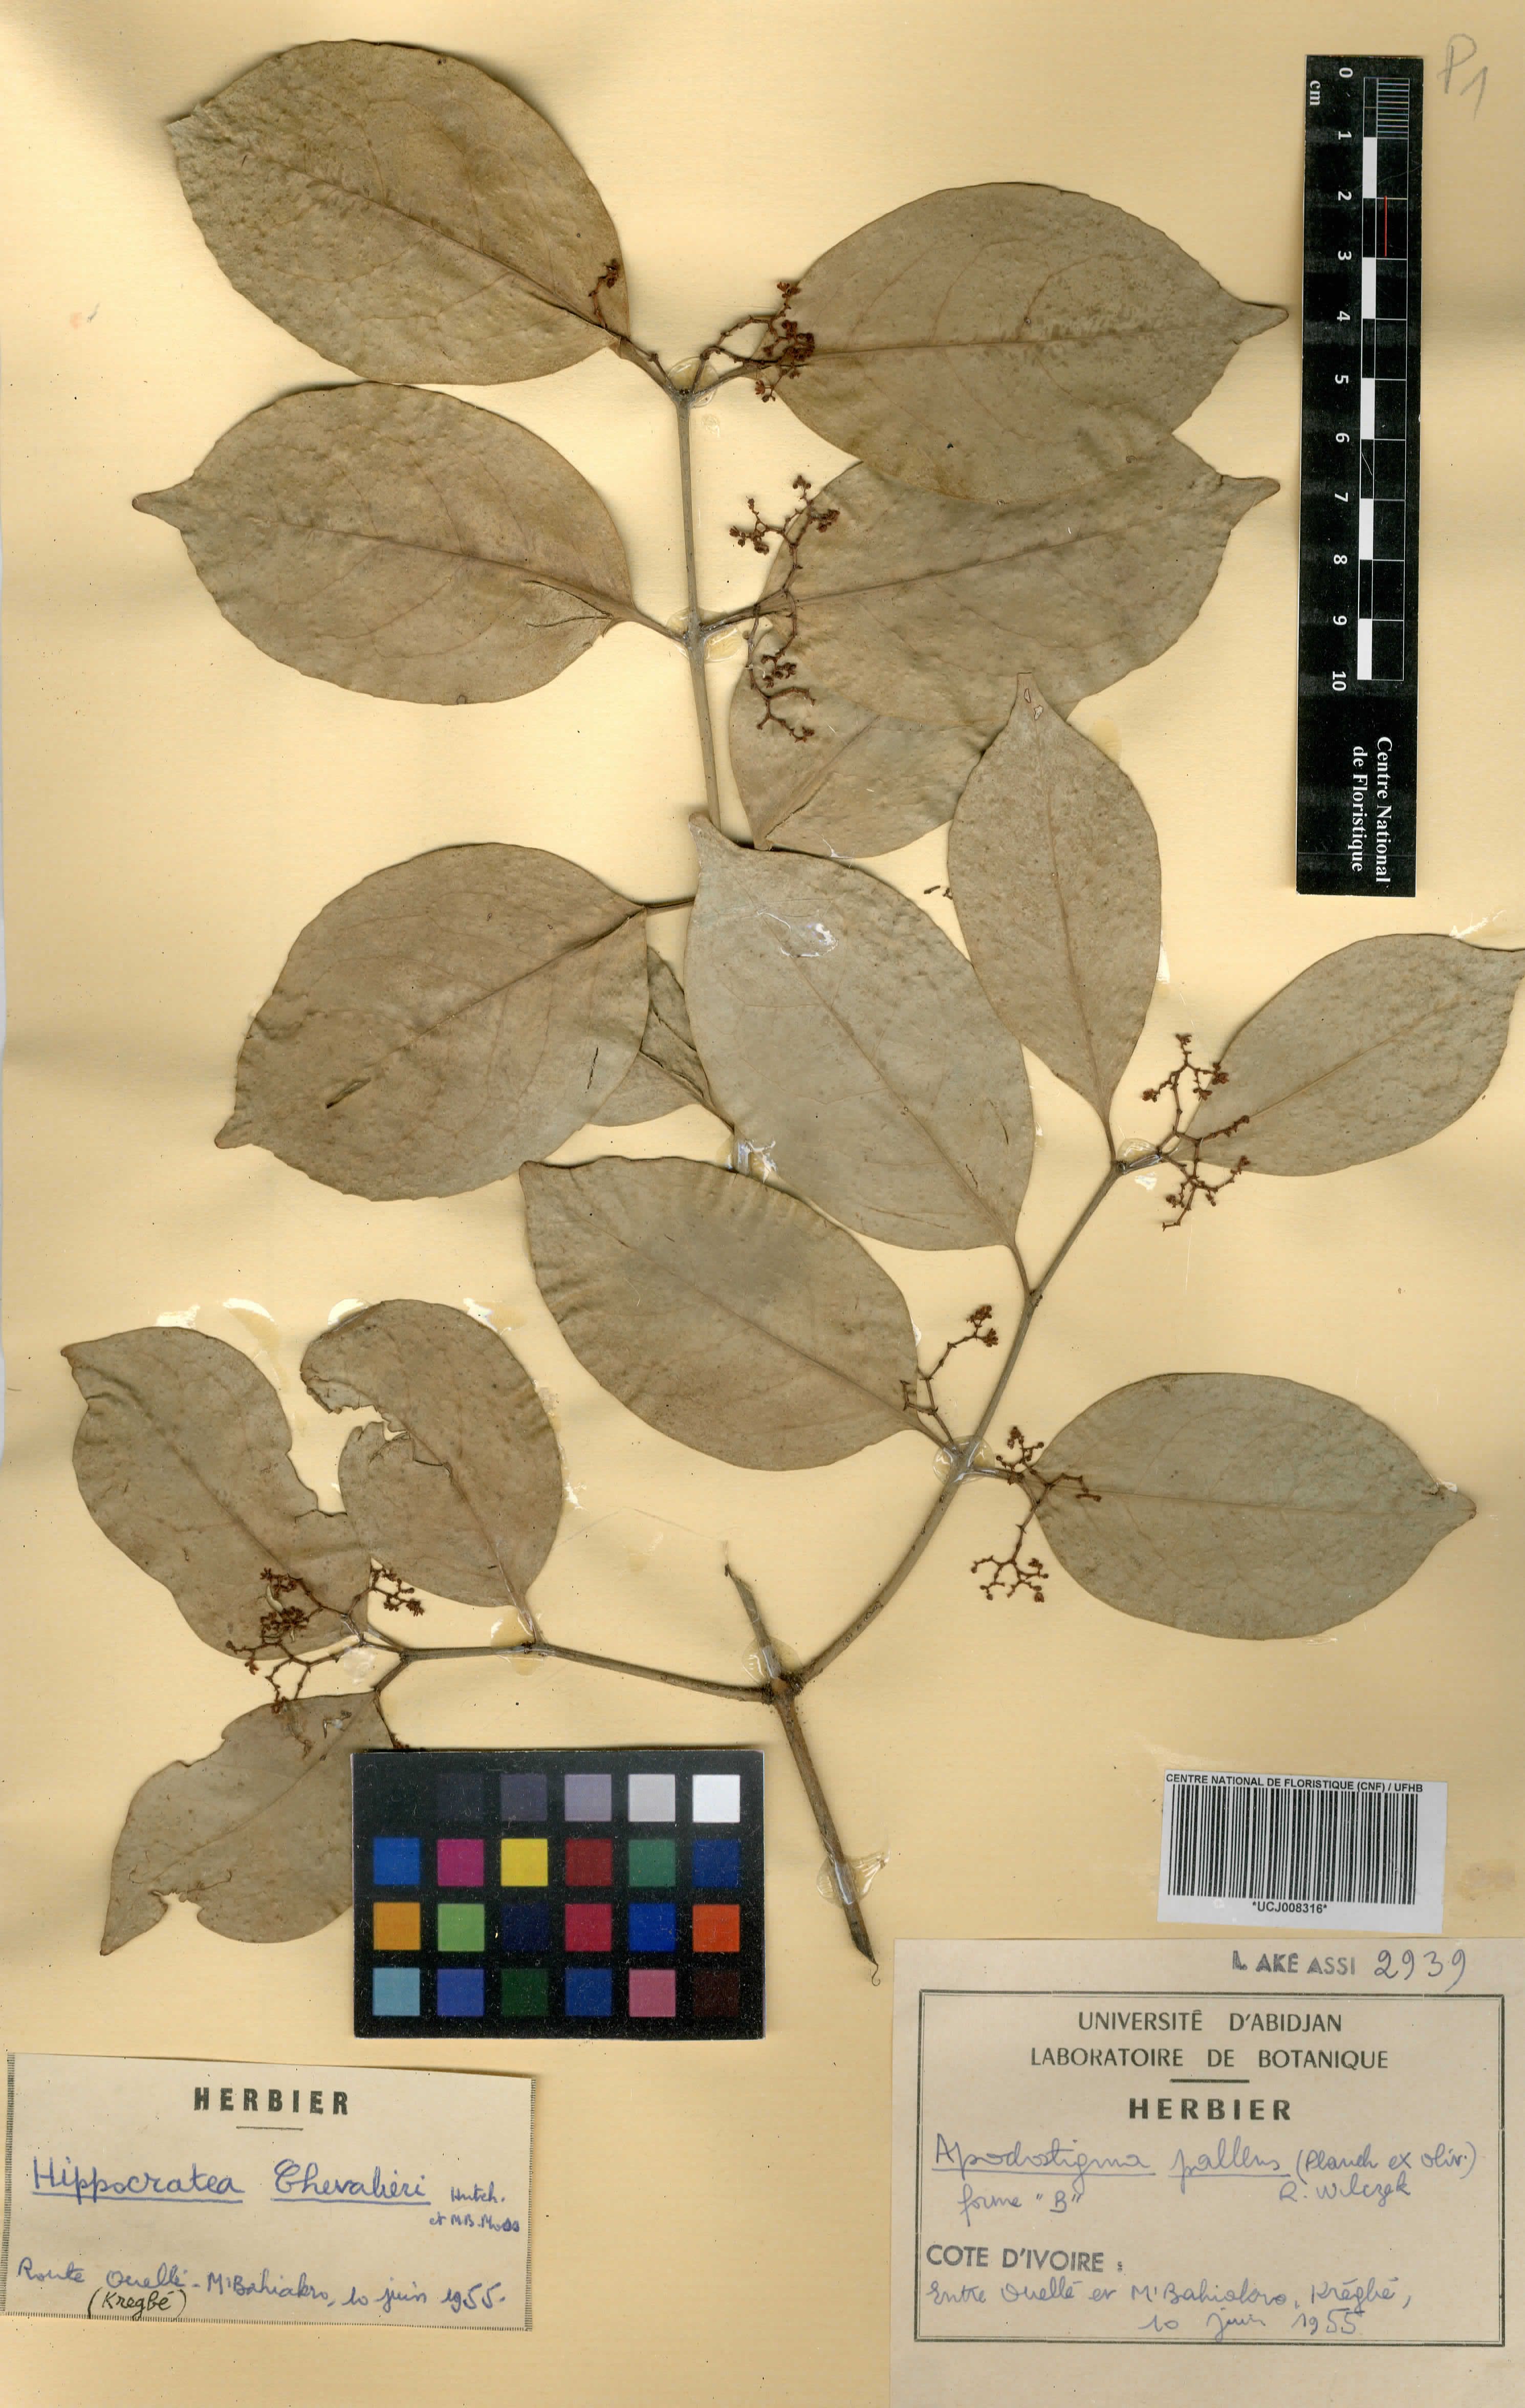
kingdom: Plantae
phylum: Tracheophyta
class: Magnoliopsida
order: Celastrales
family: Celastraceae
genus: Apodostigma
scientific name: Apodostigma pallens
